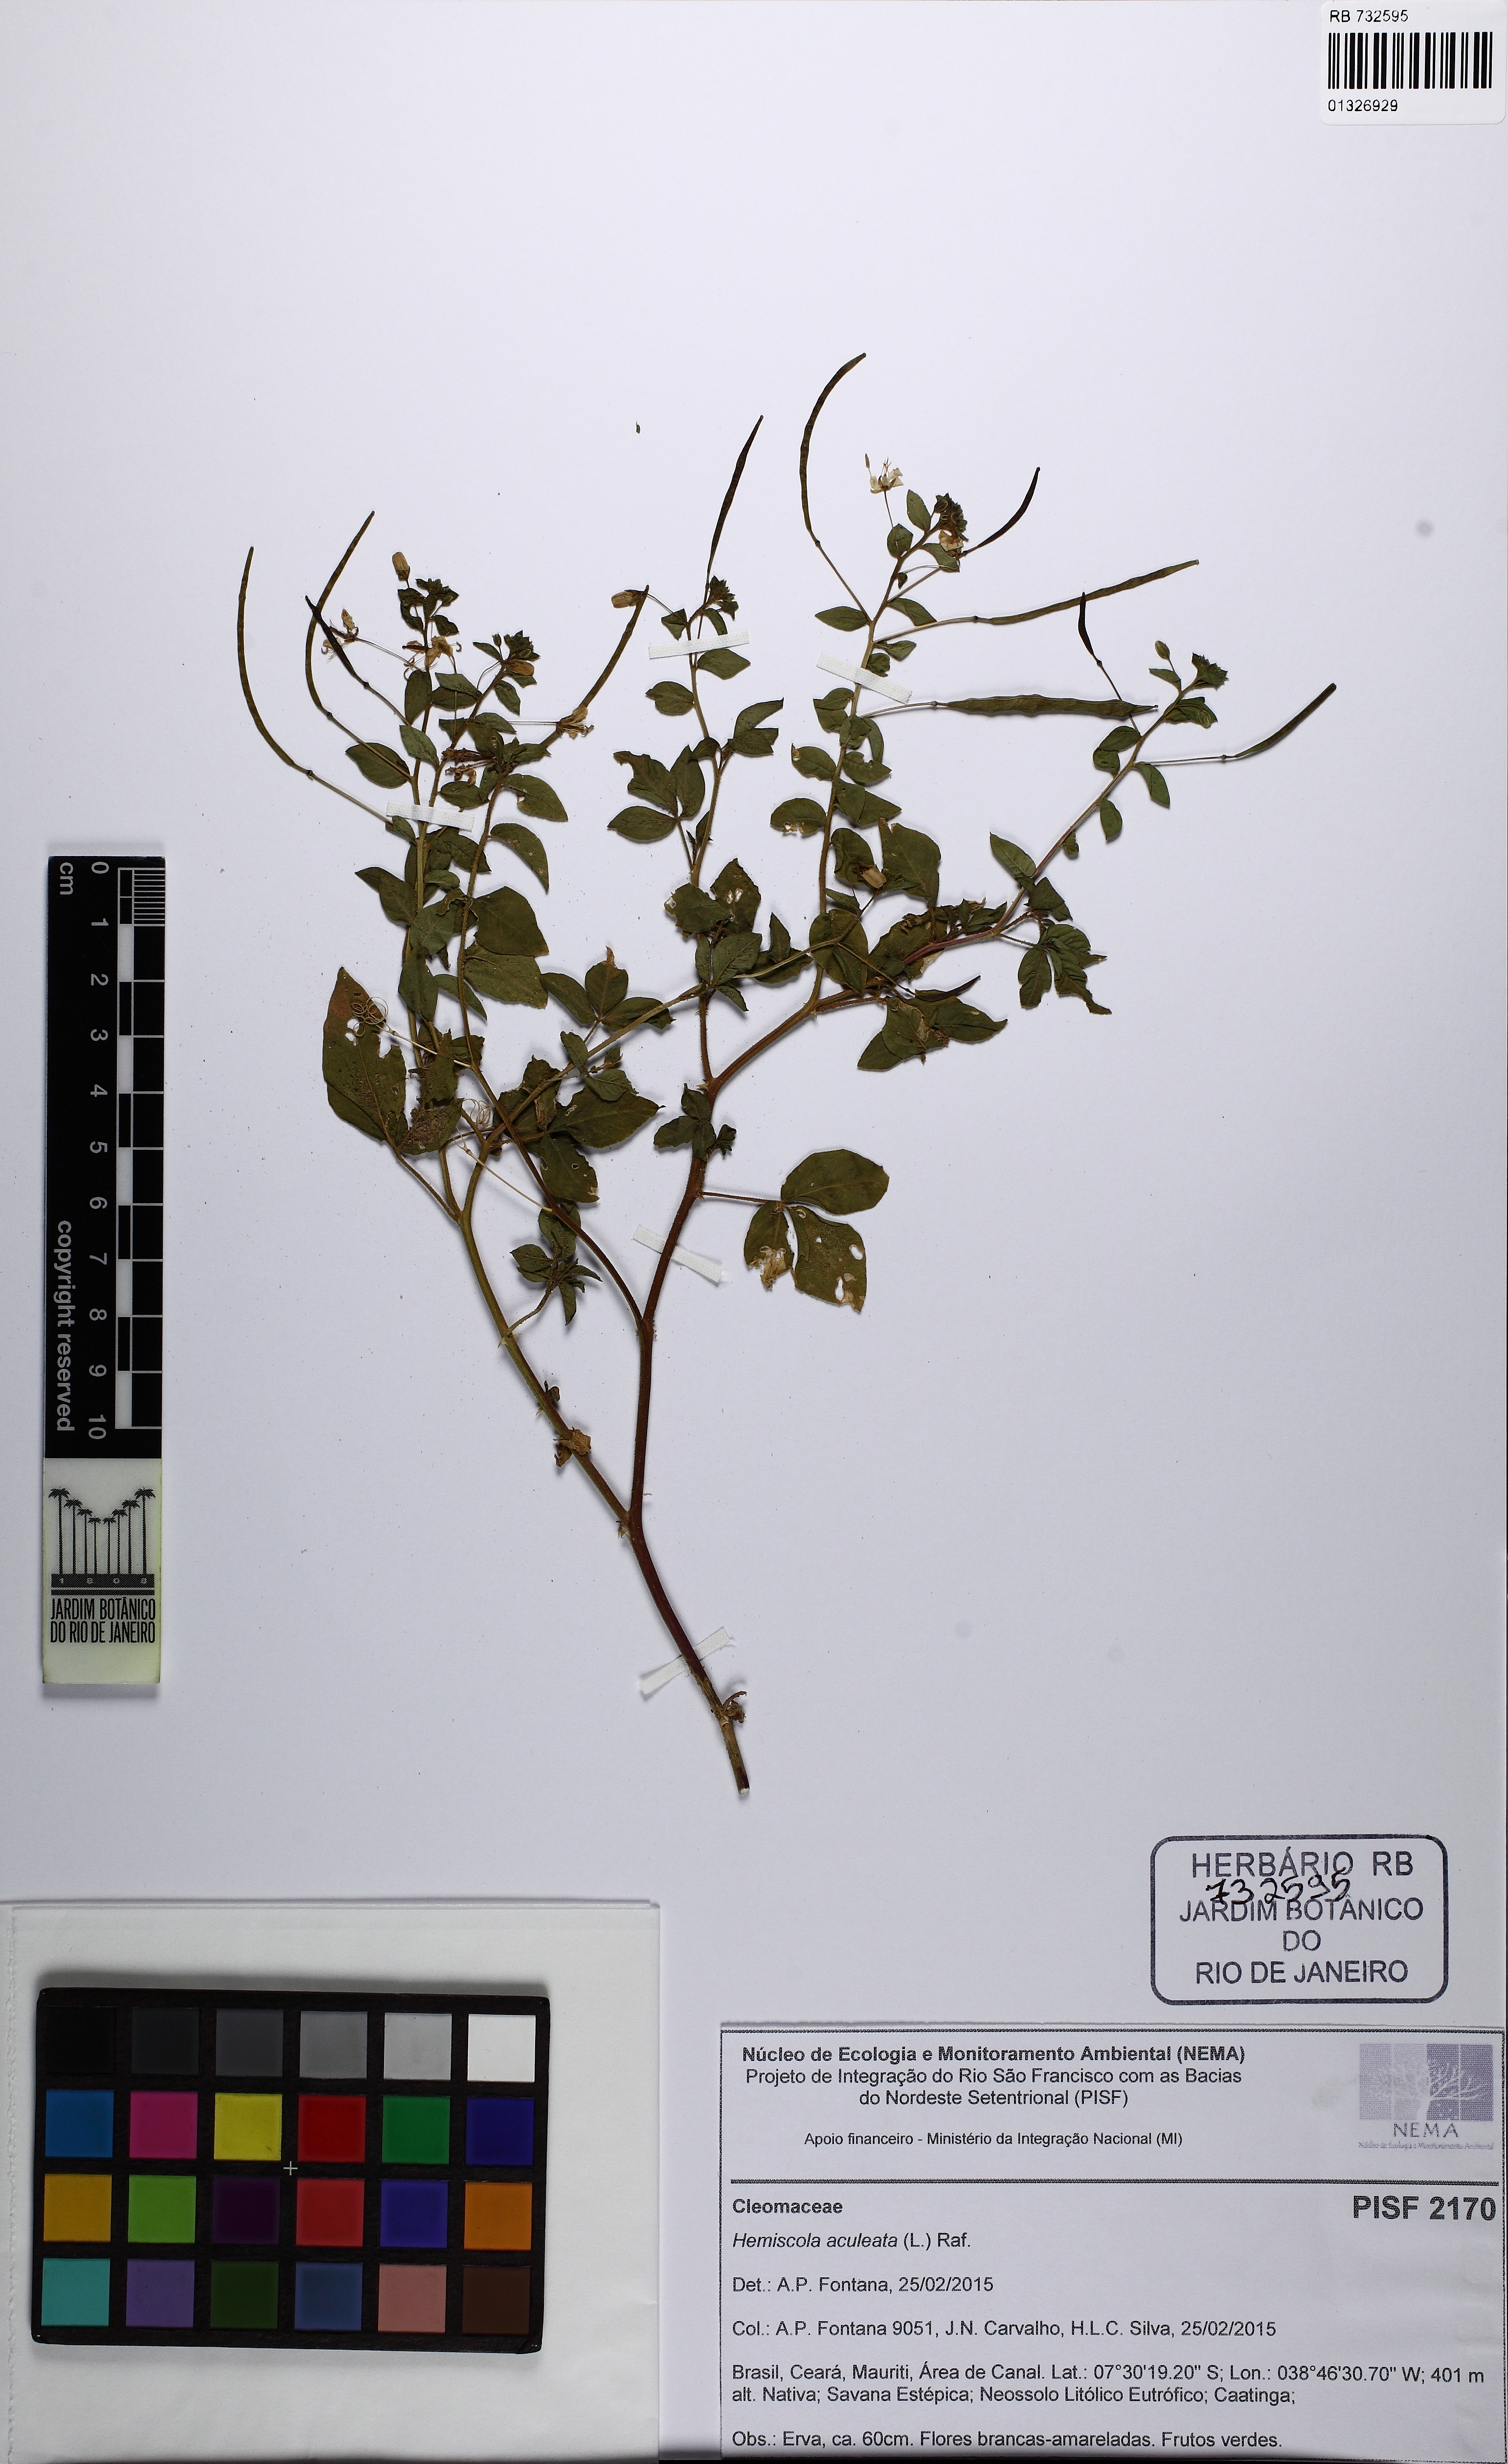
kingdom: Plantae
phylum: Tracheophyta
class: Magnoliopsida
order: Brassicales
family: Cleomaceae
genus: Tarenaya
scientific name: Tarenaya aculeata
